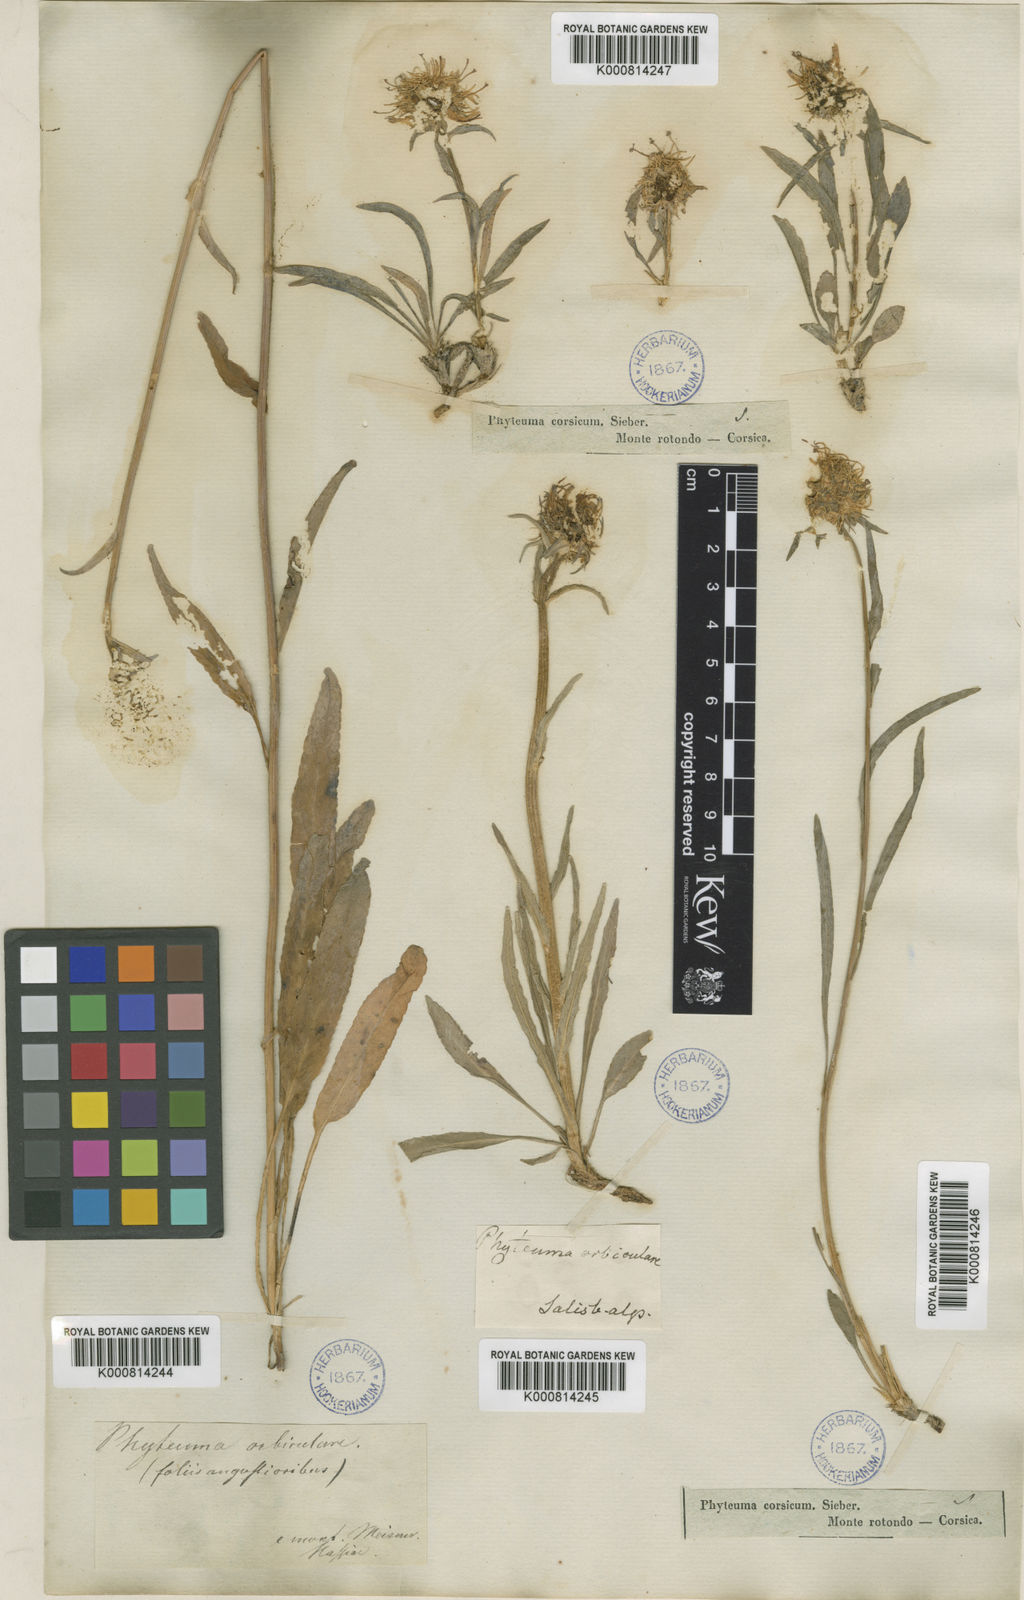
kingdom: Plantae
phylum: Tracheophyta
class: Magnoliopsida
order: Asterales
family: Campanulaceae
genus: Phyteuma
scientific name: Phyteuma
